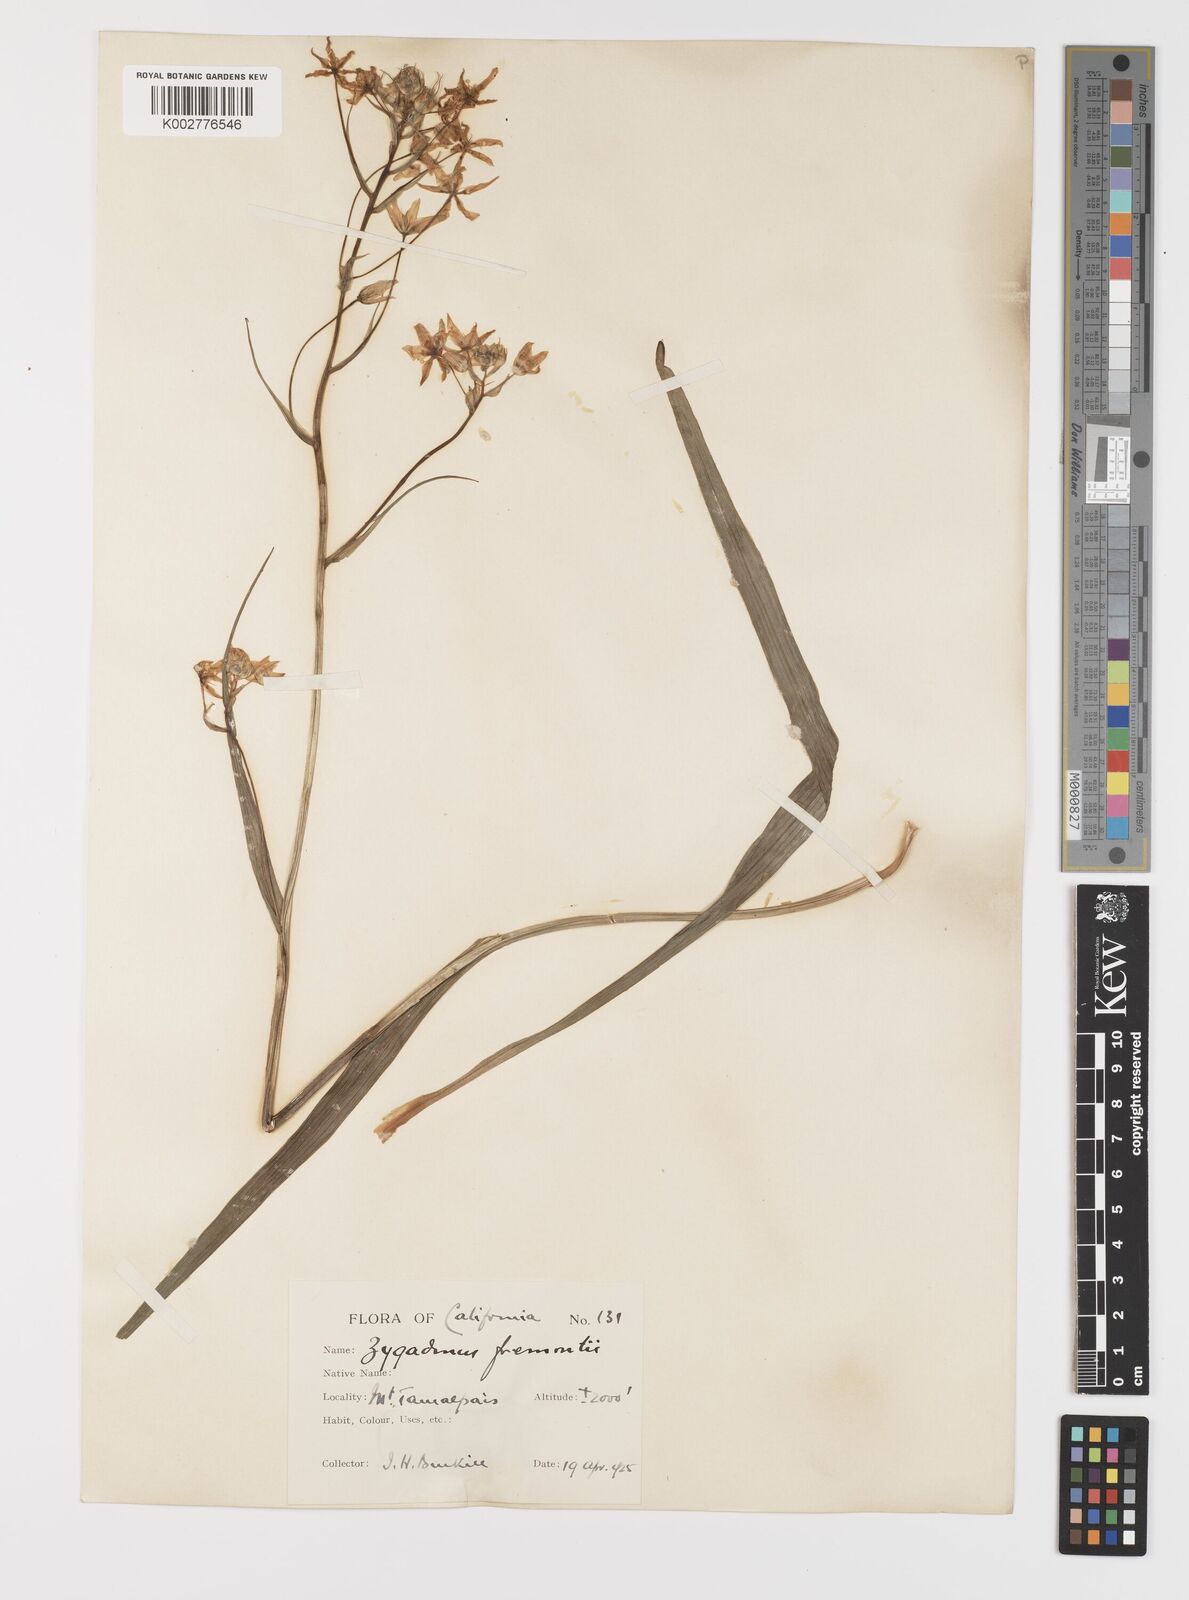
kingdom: Plantae
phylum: Tracheophyta
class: Liliopsida
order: Liliales
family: Melanthiaceae
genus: Toxicoscordion
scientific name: Toxicoscordion fremontii
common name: Fremont's death camas
